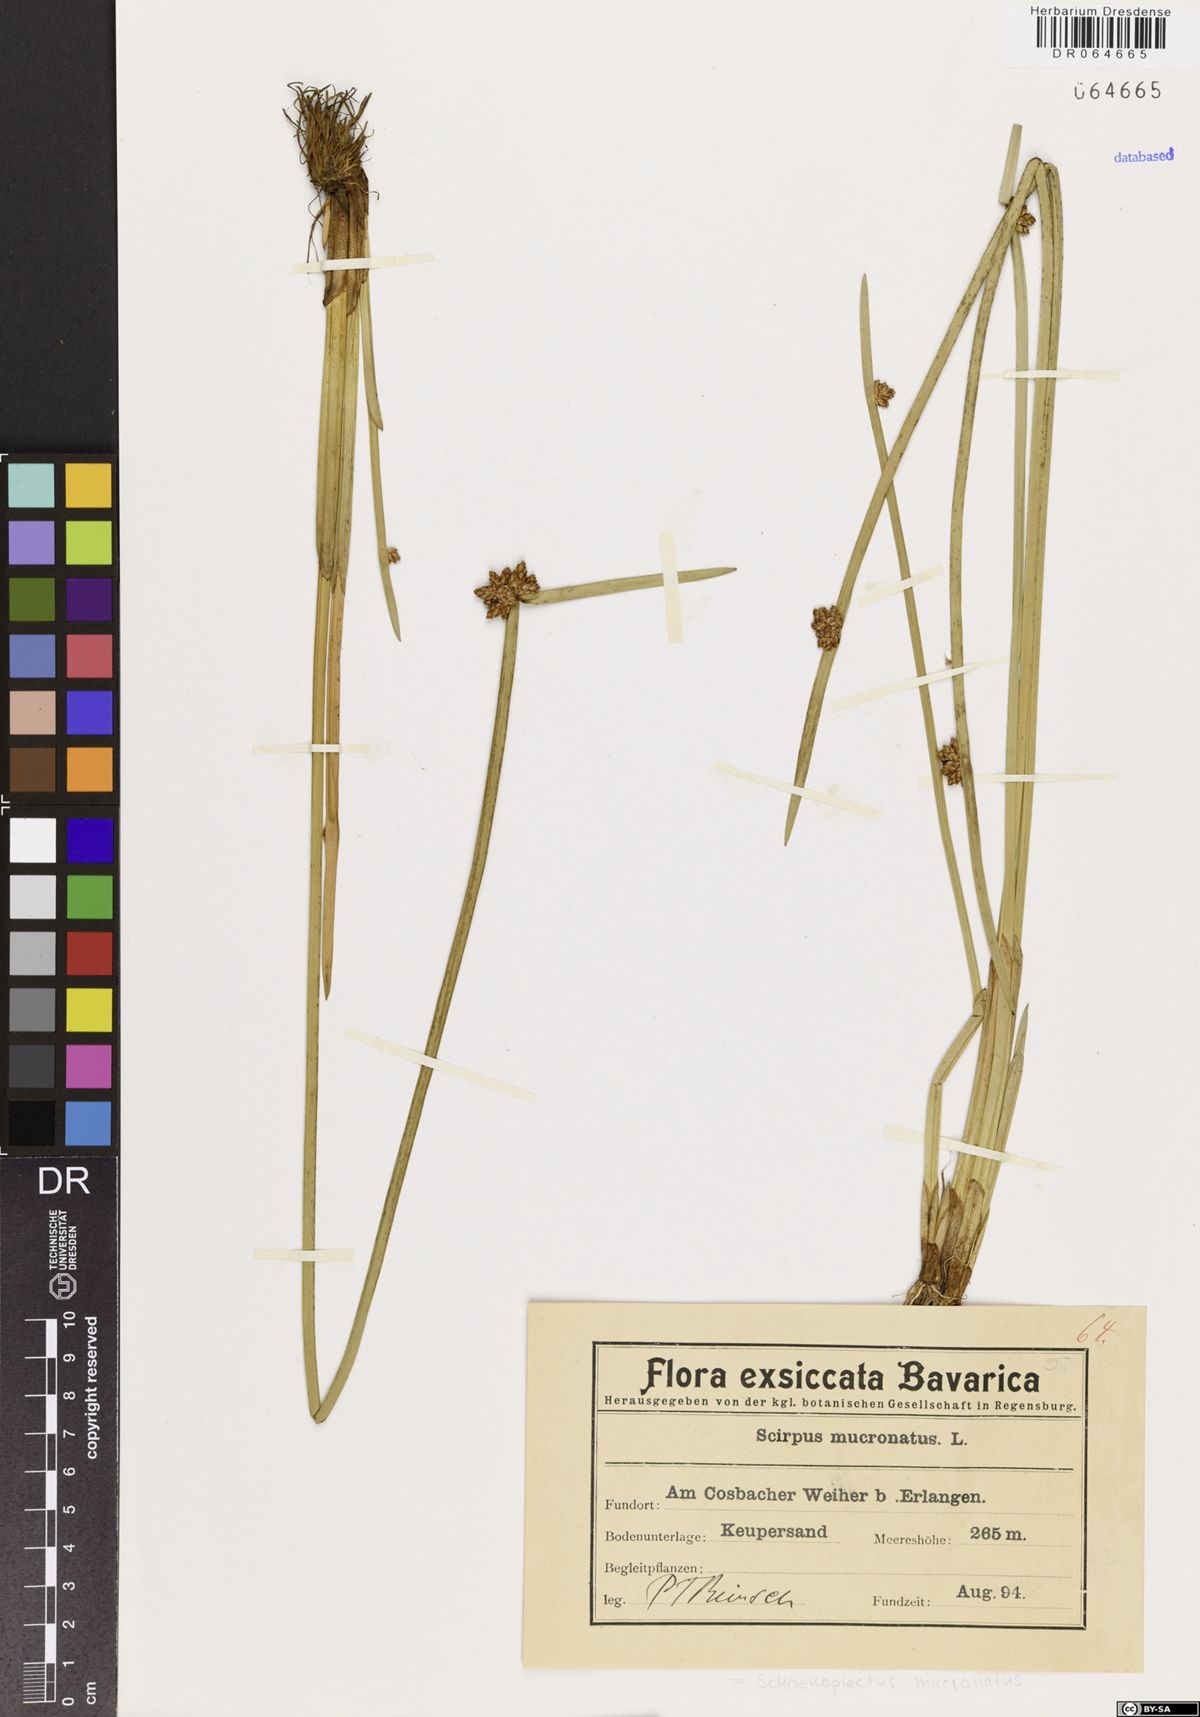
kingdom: Plantae
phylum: Tracheophyta
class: Liliopsida
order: Poales
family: Cyperaceae
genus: Schoenoplectiella
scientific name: Schoenoplectiella mucronata
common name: Bog bulrush
